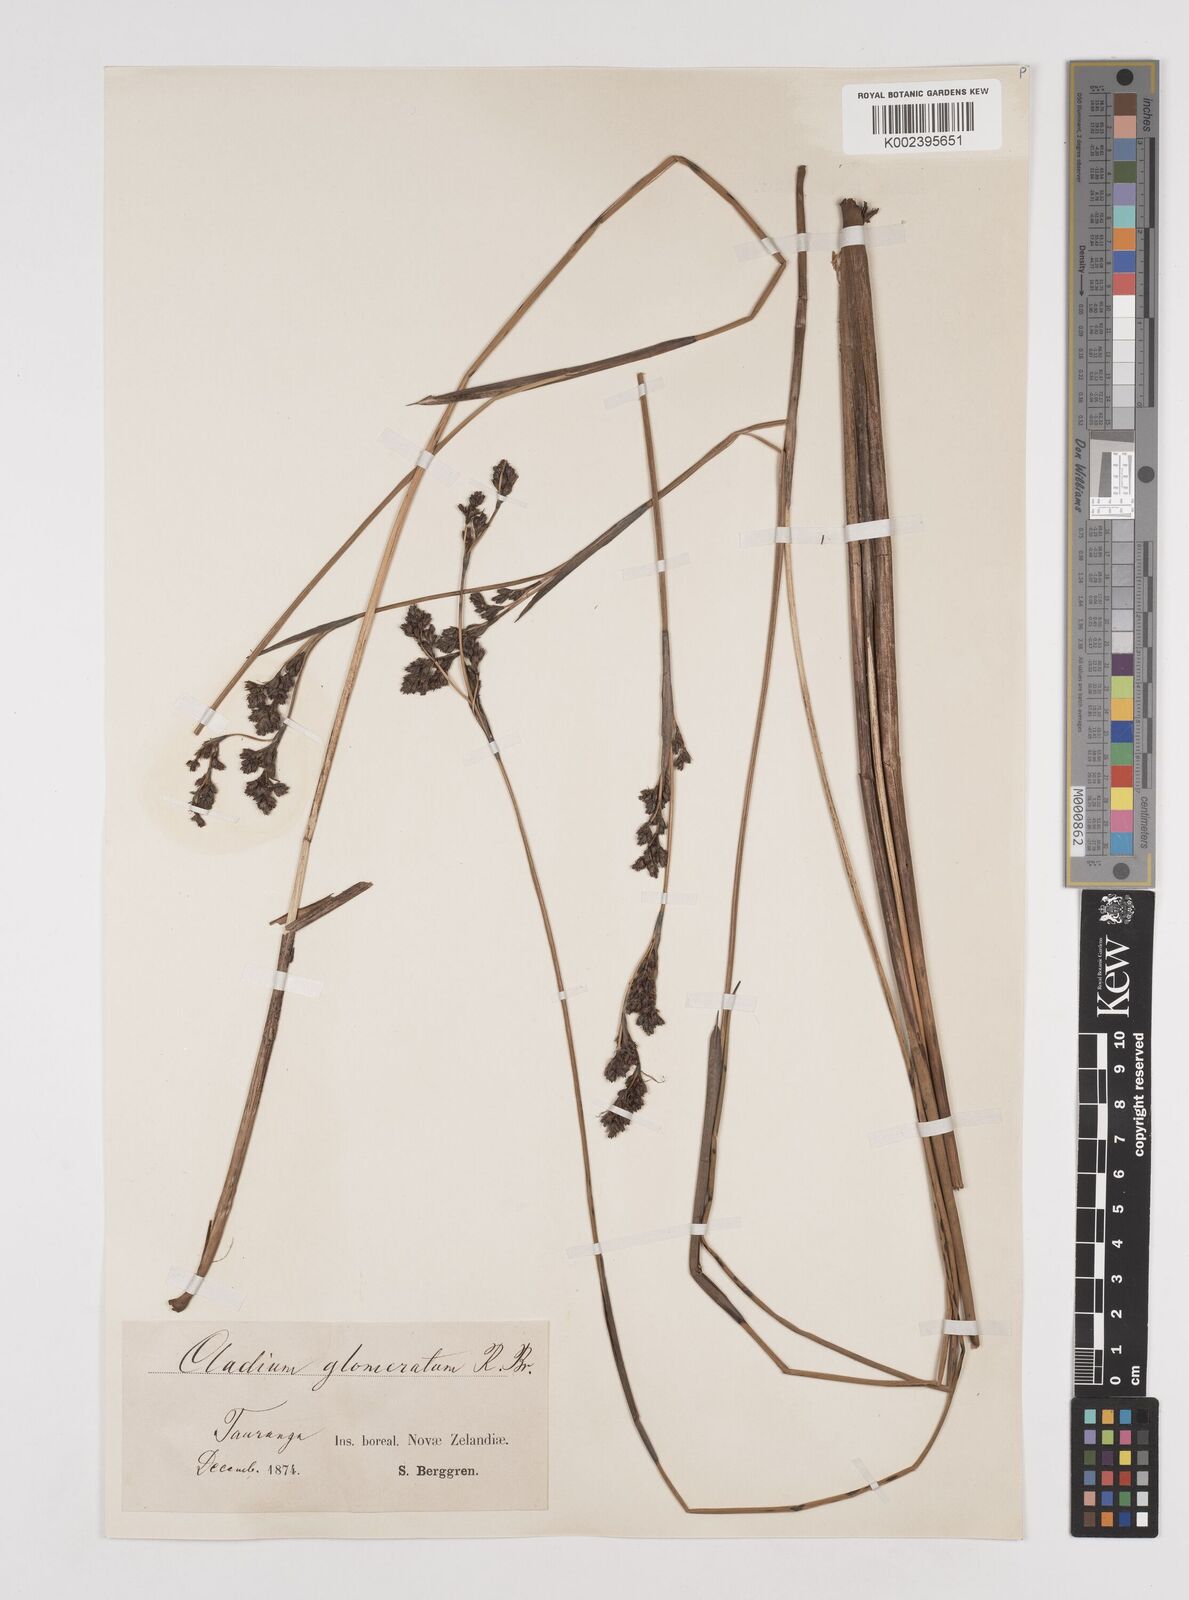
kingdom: Plantae
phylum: Tracheophyta
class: Liliopsida
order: Poales
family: Cyperaceae
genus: Machaerina
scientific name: Machaerina rubiginosa
